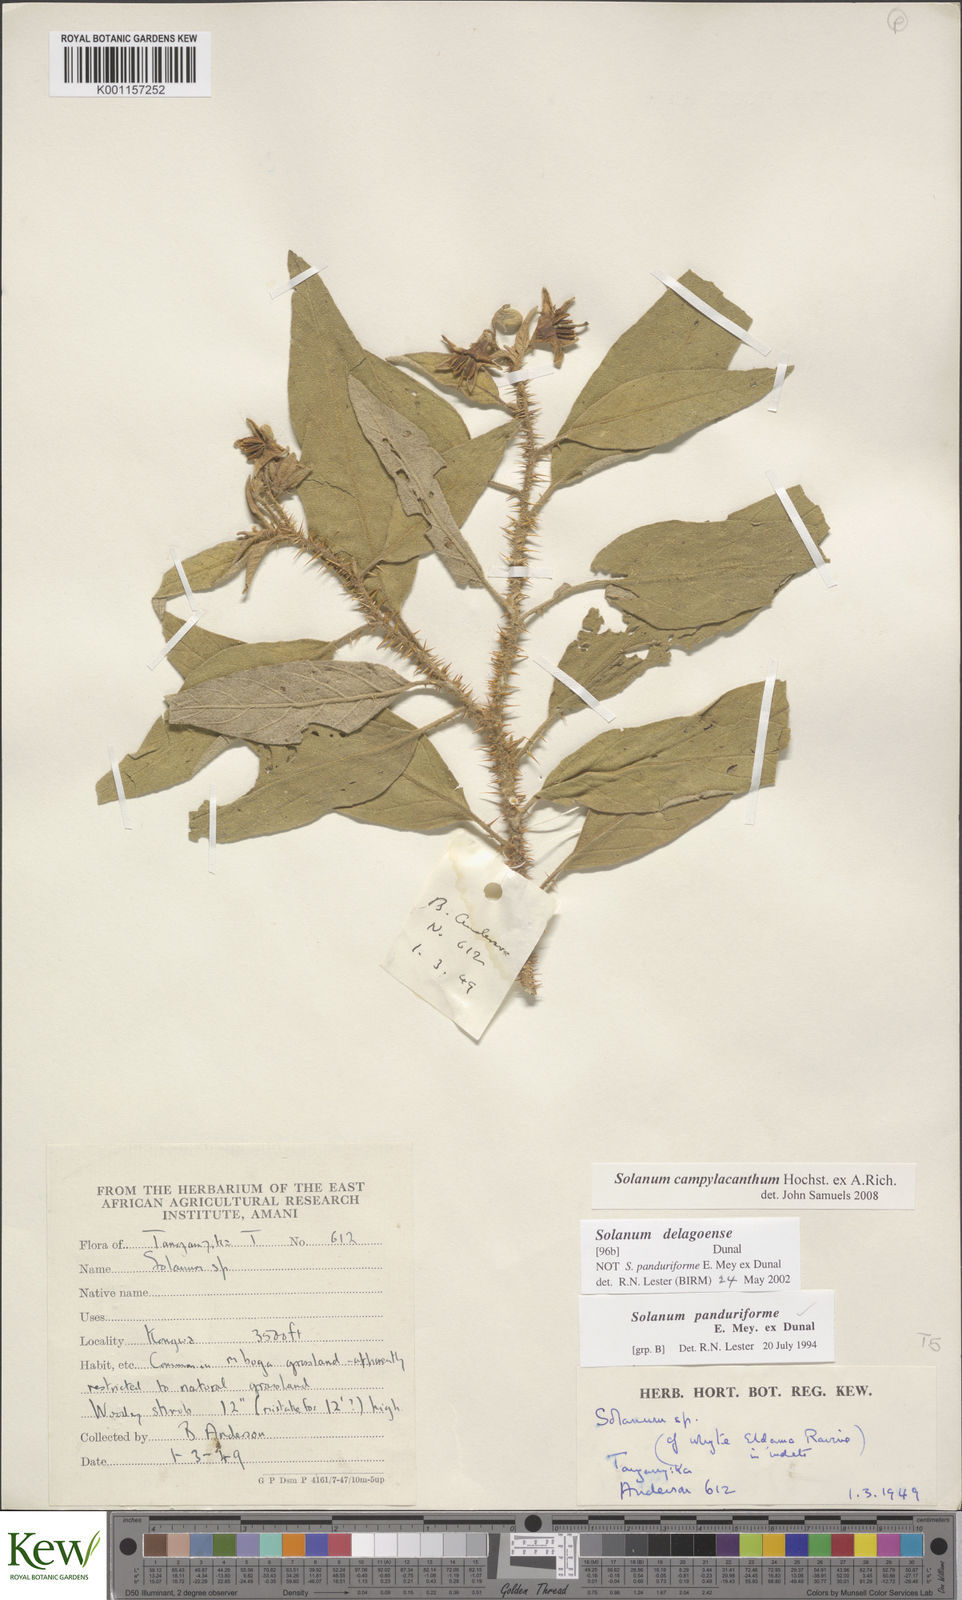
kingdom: Plantae
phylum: Tracheophyta
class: Magnoliopsida
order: Solanales
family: Solanaceae
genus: Solanum
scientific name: Solanum campylacanthum
